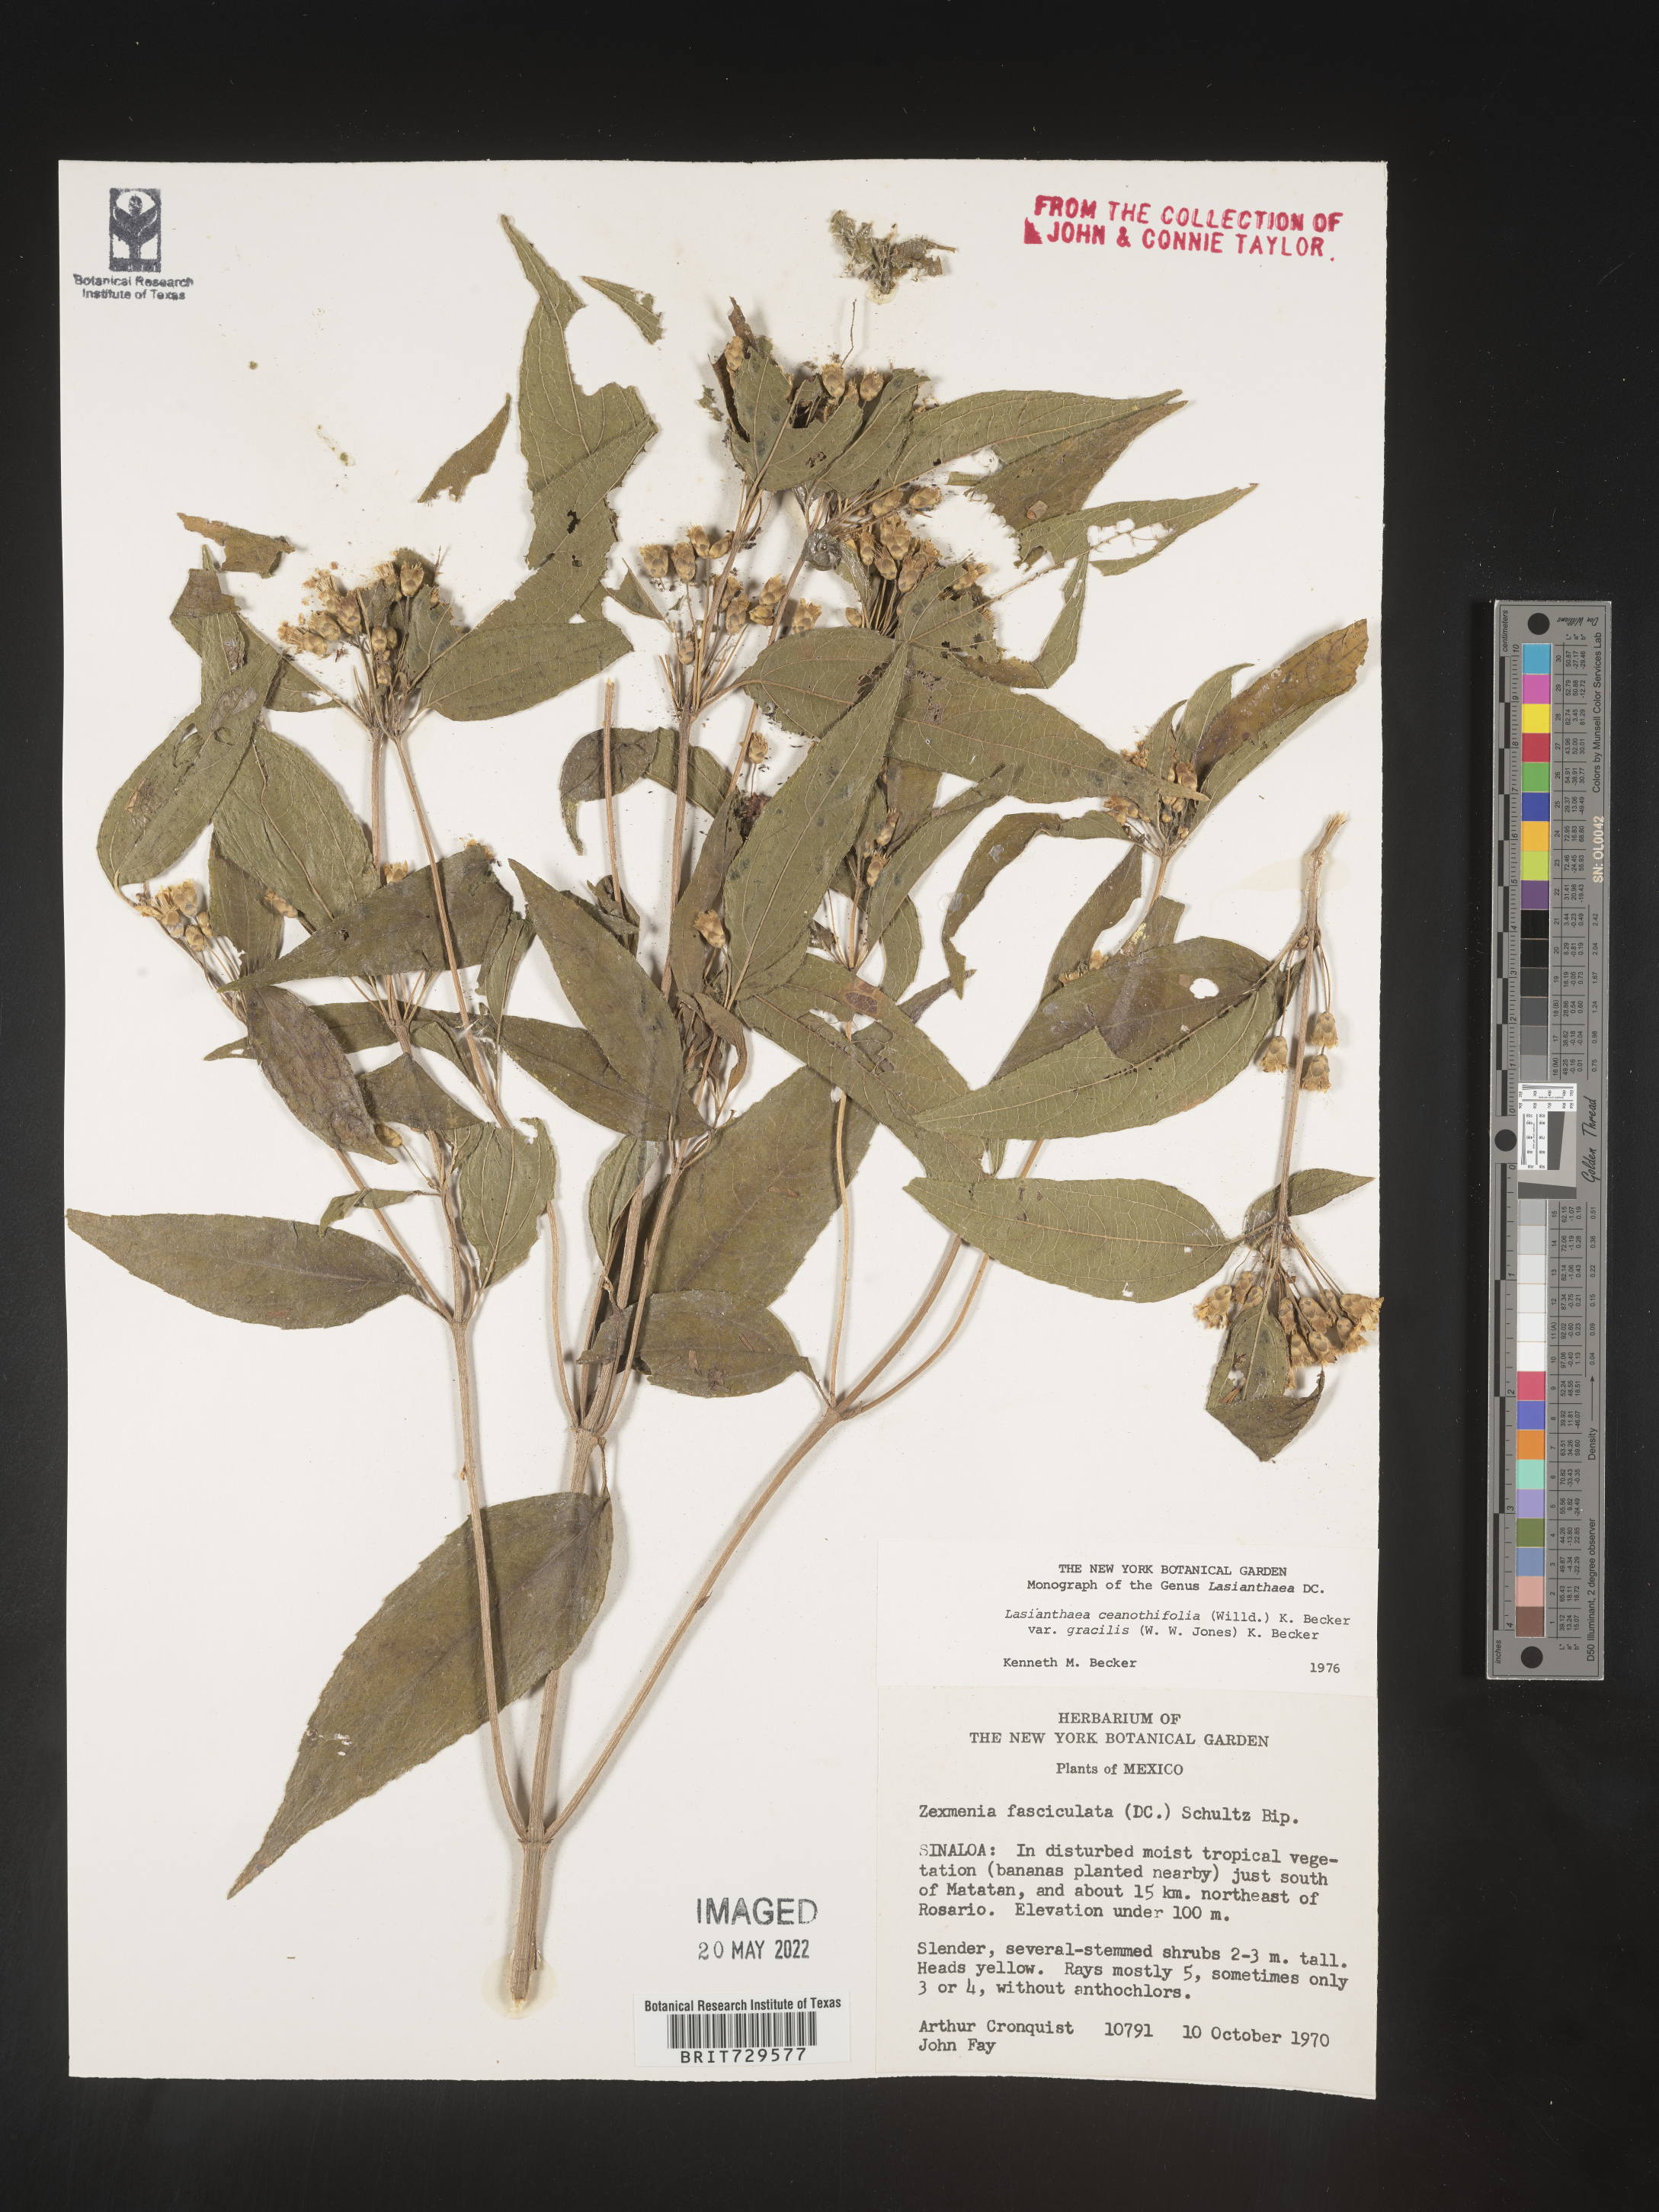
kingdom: Plantae
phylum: Tracheophyta
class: Magnoliopsida
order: Asterales
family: Asteraceae
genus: Lasianthaea
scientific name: Lasianthaea
